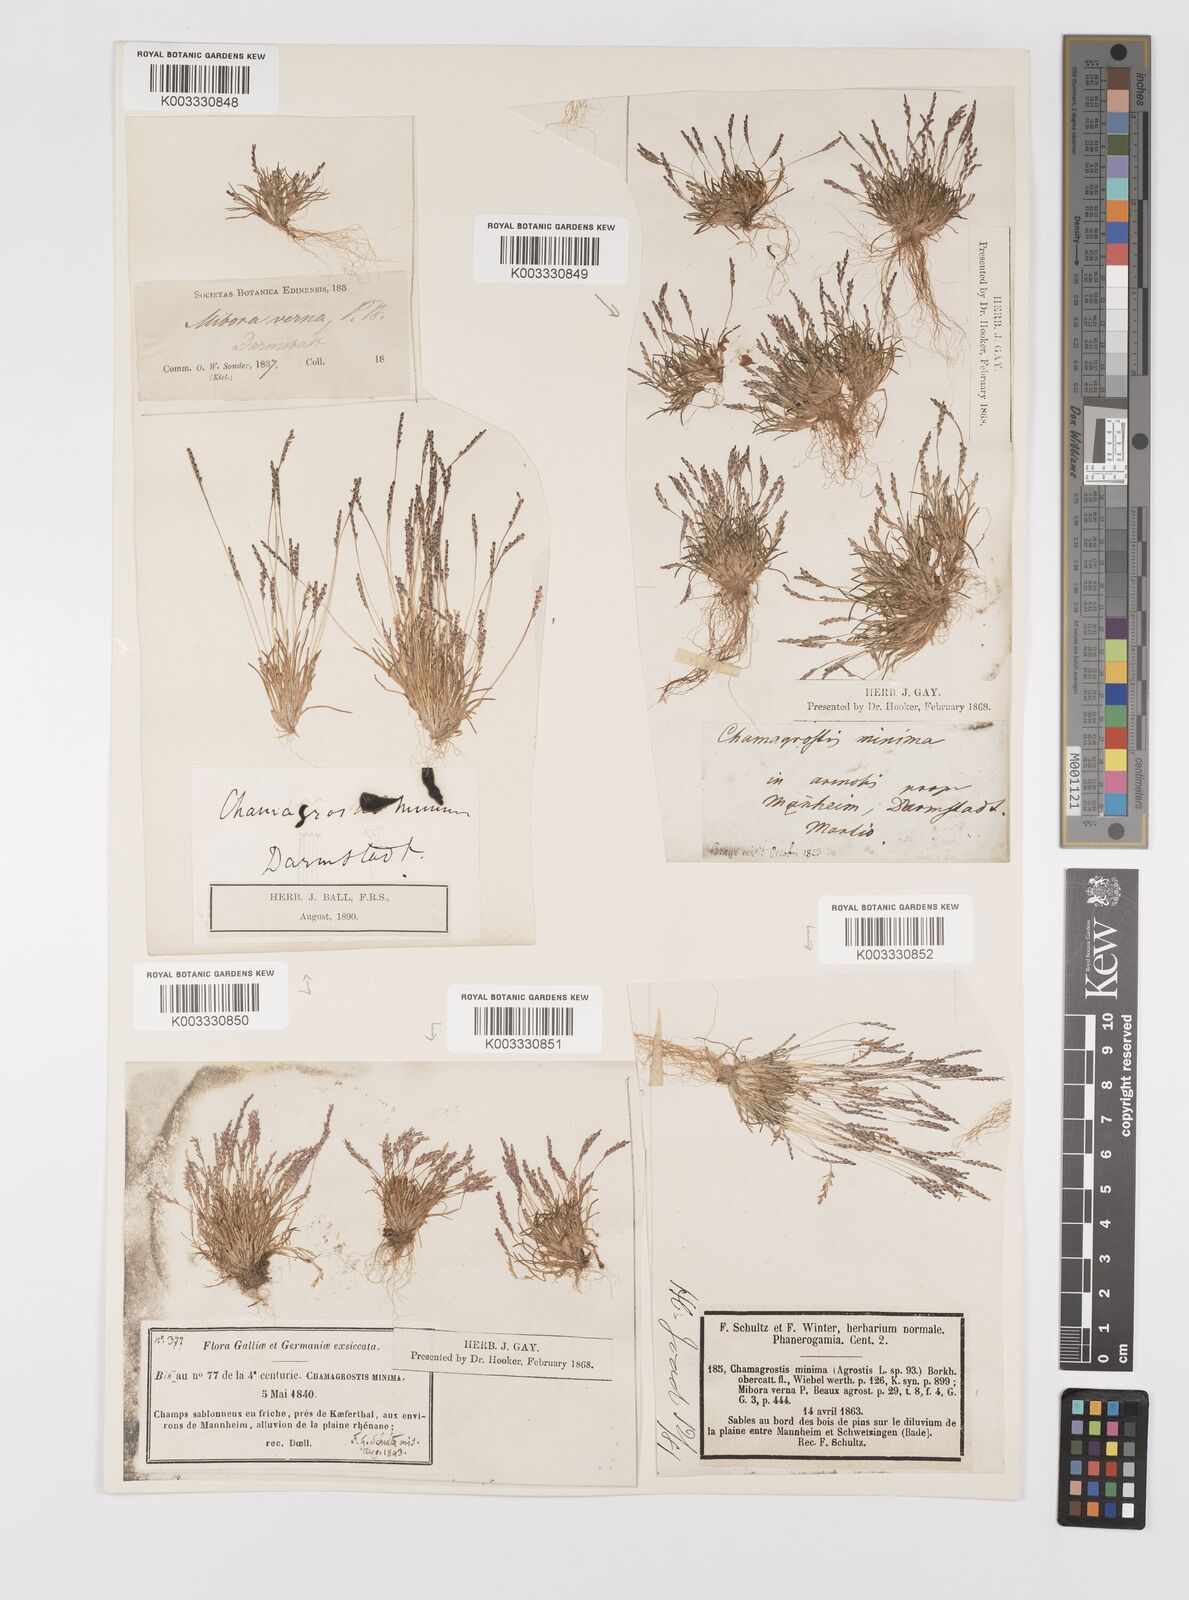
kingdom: Plantae
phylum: Tracheophyta
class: Liliopsida
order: Poales
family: Poaceae
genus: Mibora
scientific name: Mibora minima
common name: Early sand-grass
